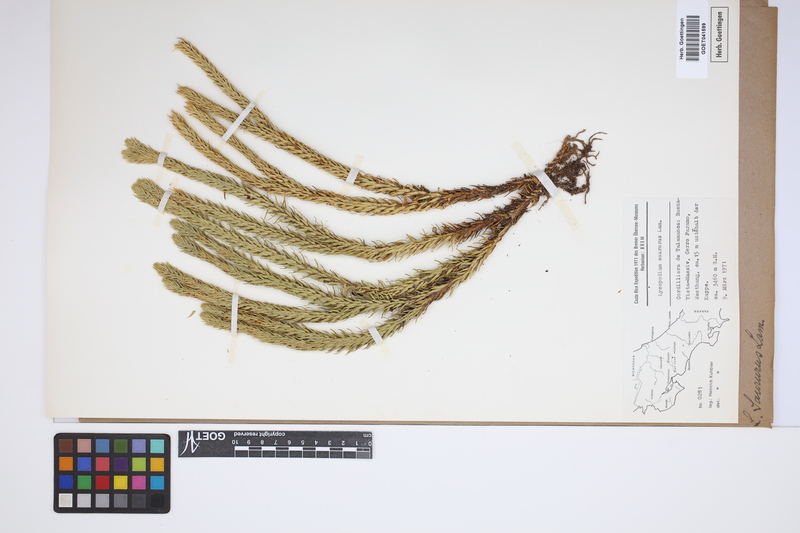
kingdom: Plantae
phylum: Tracheophyta
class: Lycopodiopsida
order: Lycopodiales
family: Lycopodiaceae
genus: Phlegmariurus
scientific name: Phlegmariurus saururus
